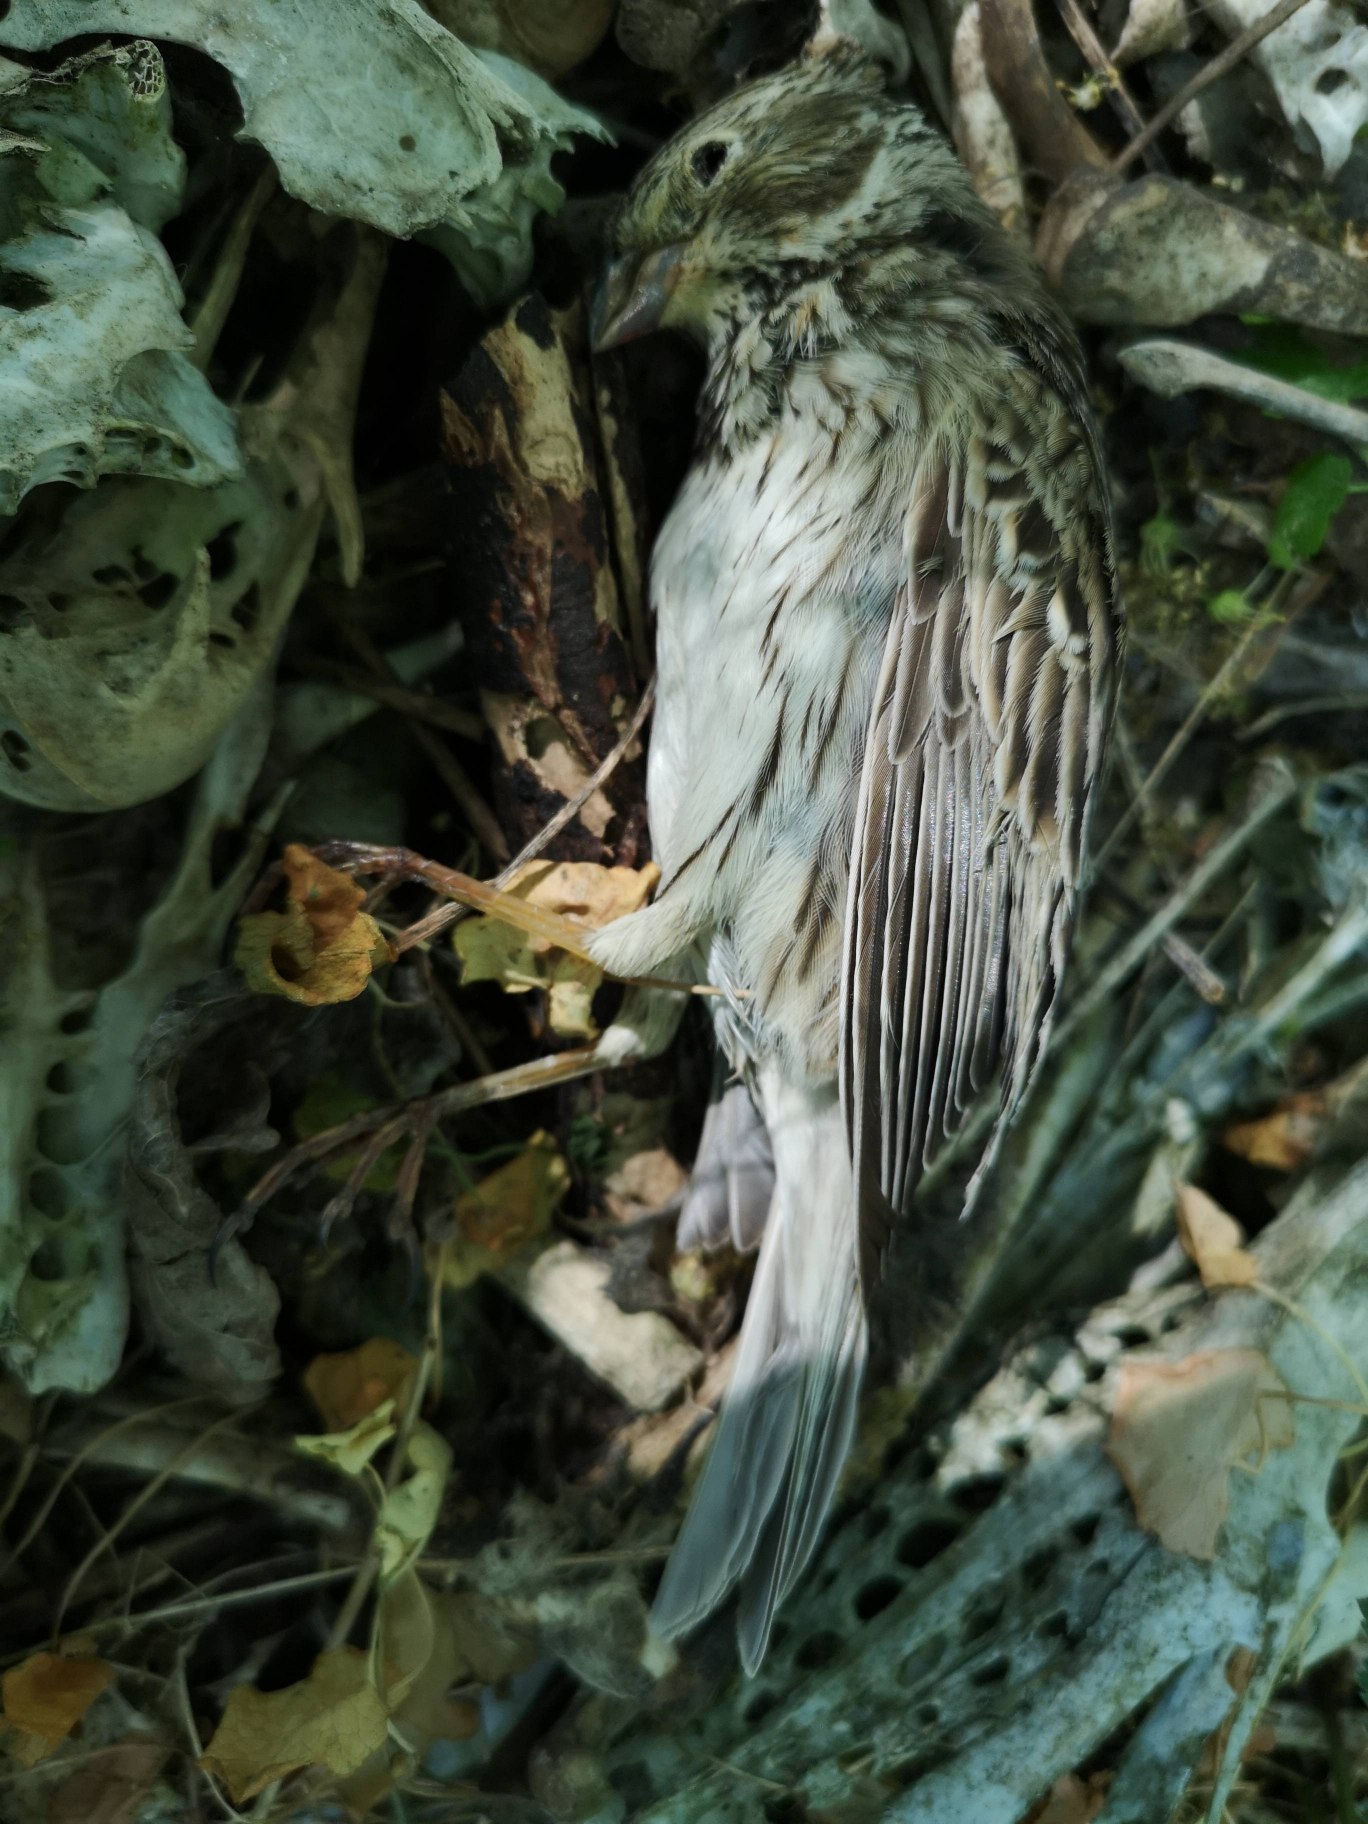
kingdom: Animalia
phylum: Chordata
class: Aves
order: Passeriformes
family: Emberizidae
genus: Emberiza
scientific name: Emberiza calandra
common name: Bomlærke
